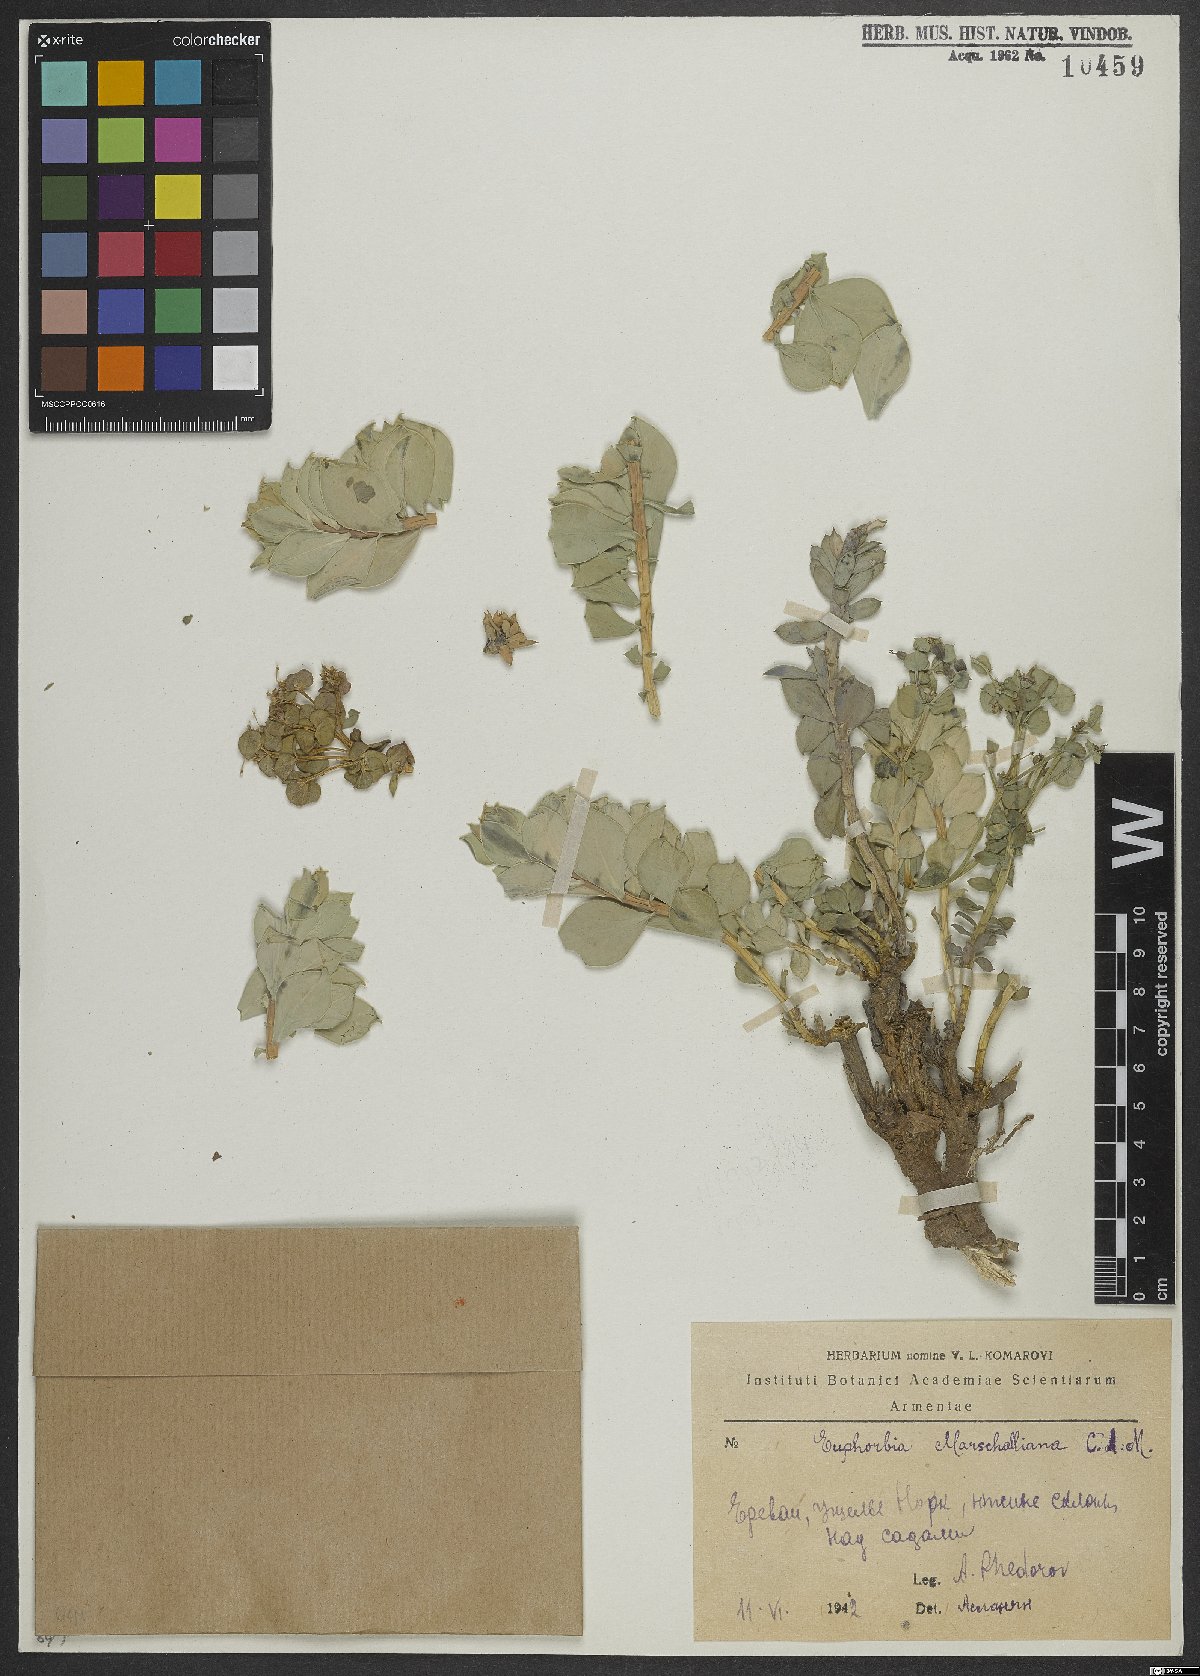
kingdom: Plantae
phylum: Tracheophyta
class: Magnoliopsida
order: Malpighiales
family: Euphorbiaceae
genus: Euphorbia
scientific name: Euphorbia marschalliana
